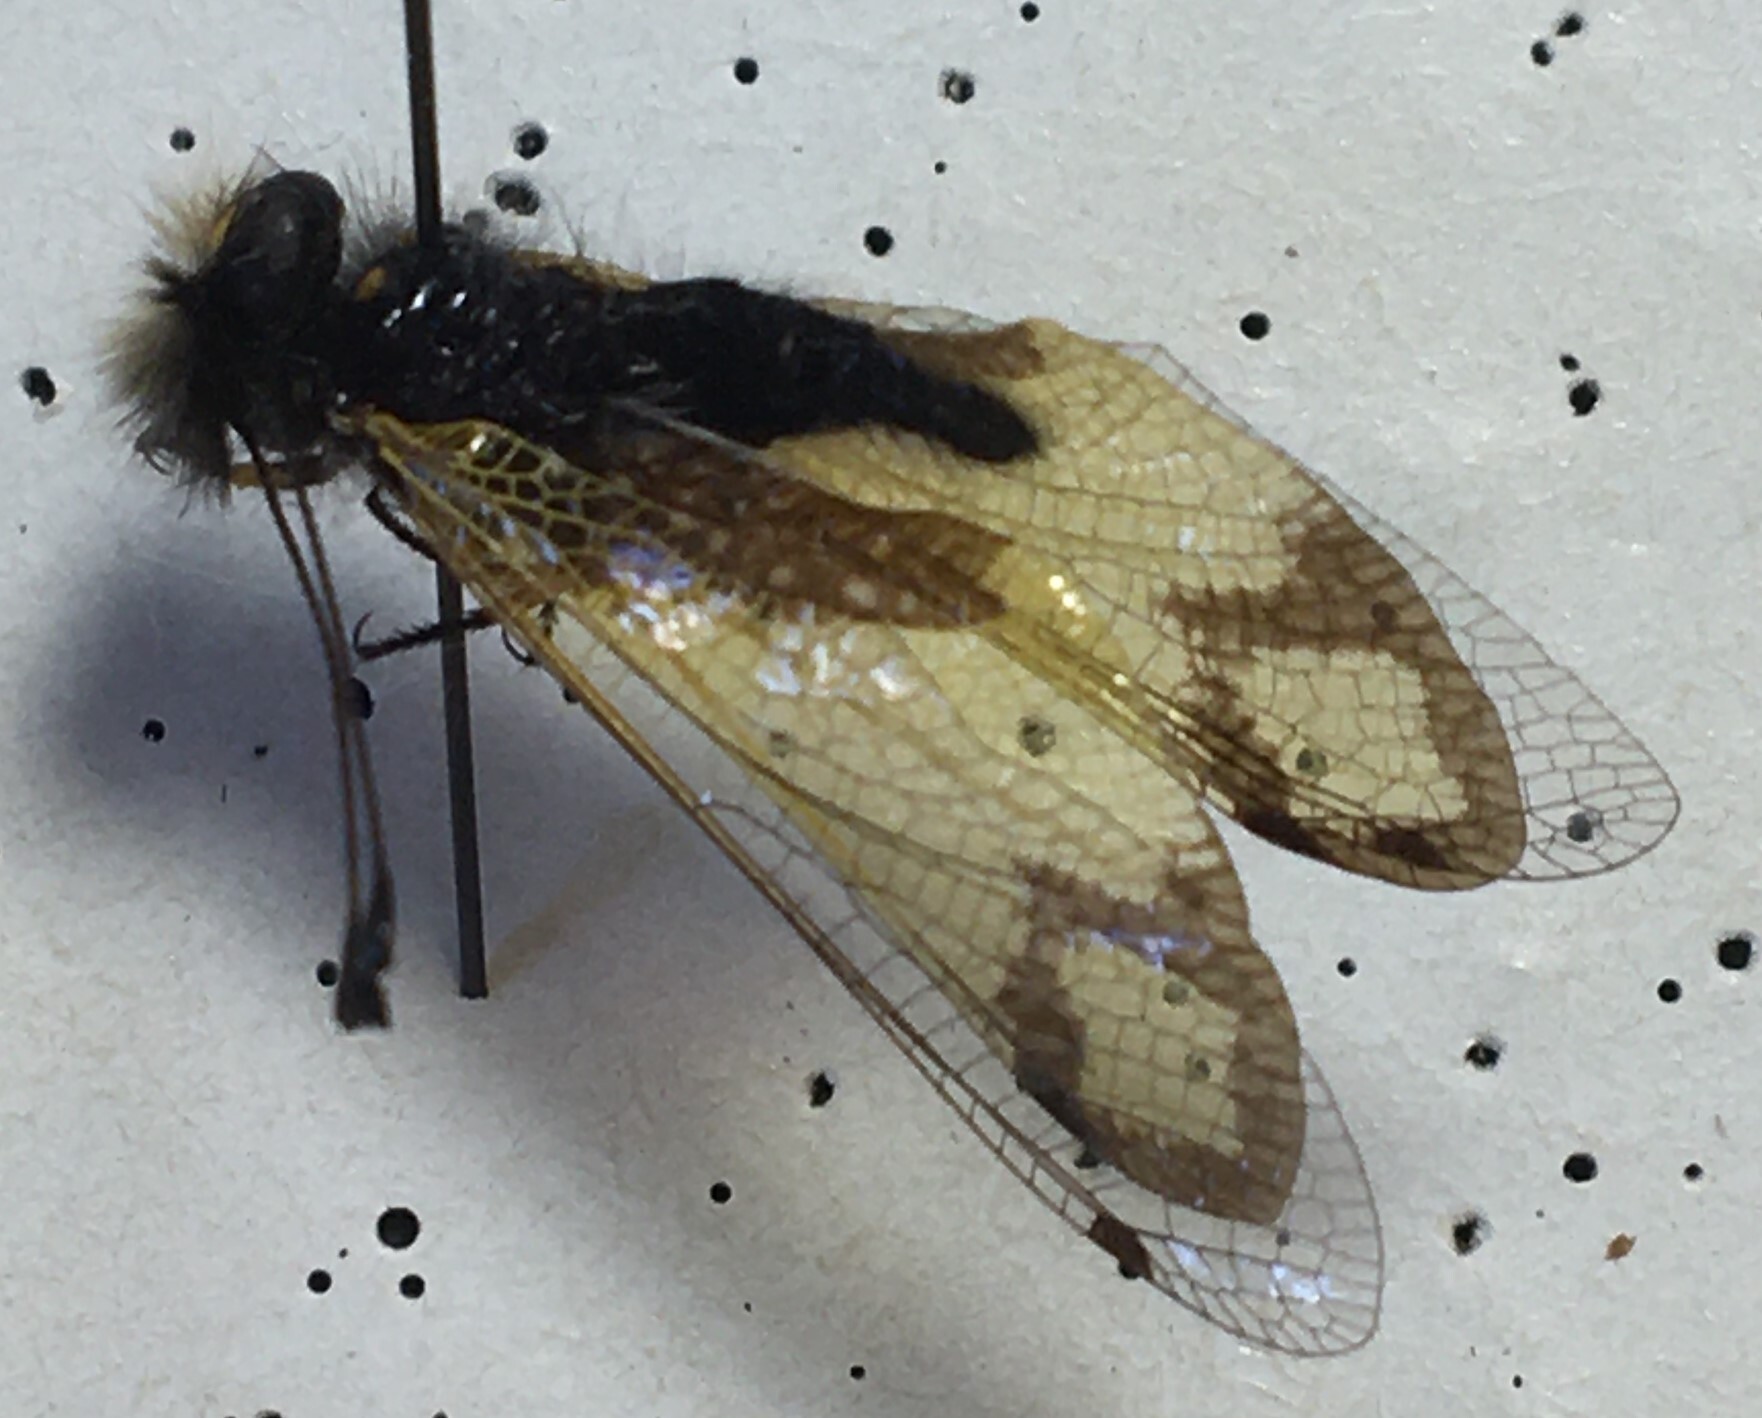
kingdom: Animalia
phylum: Arthropoda
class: Insecta
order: Neuroptera
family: Ascalaphidae
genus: Libelloides
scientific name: Libelloides rhomboideus
